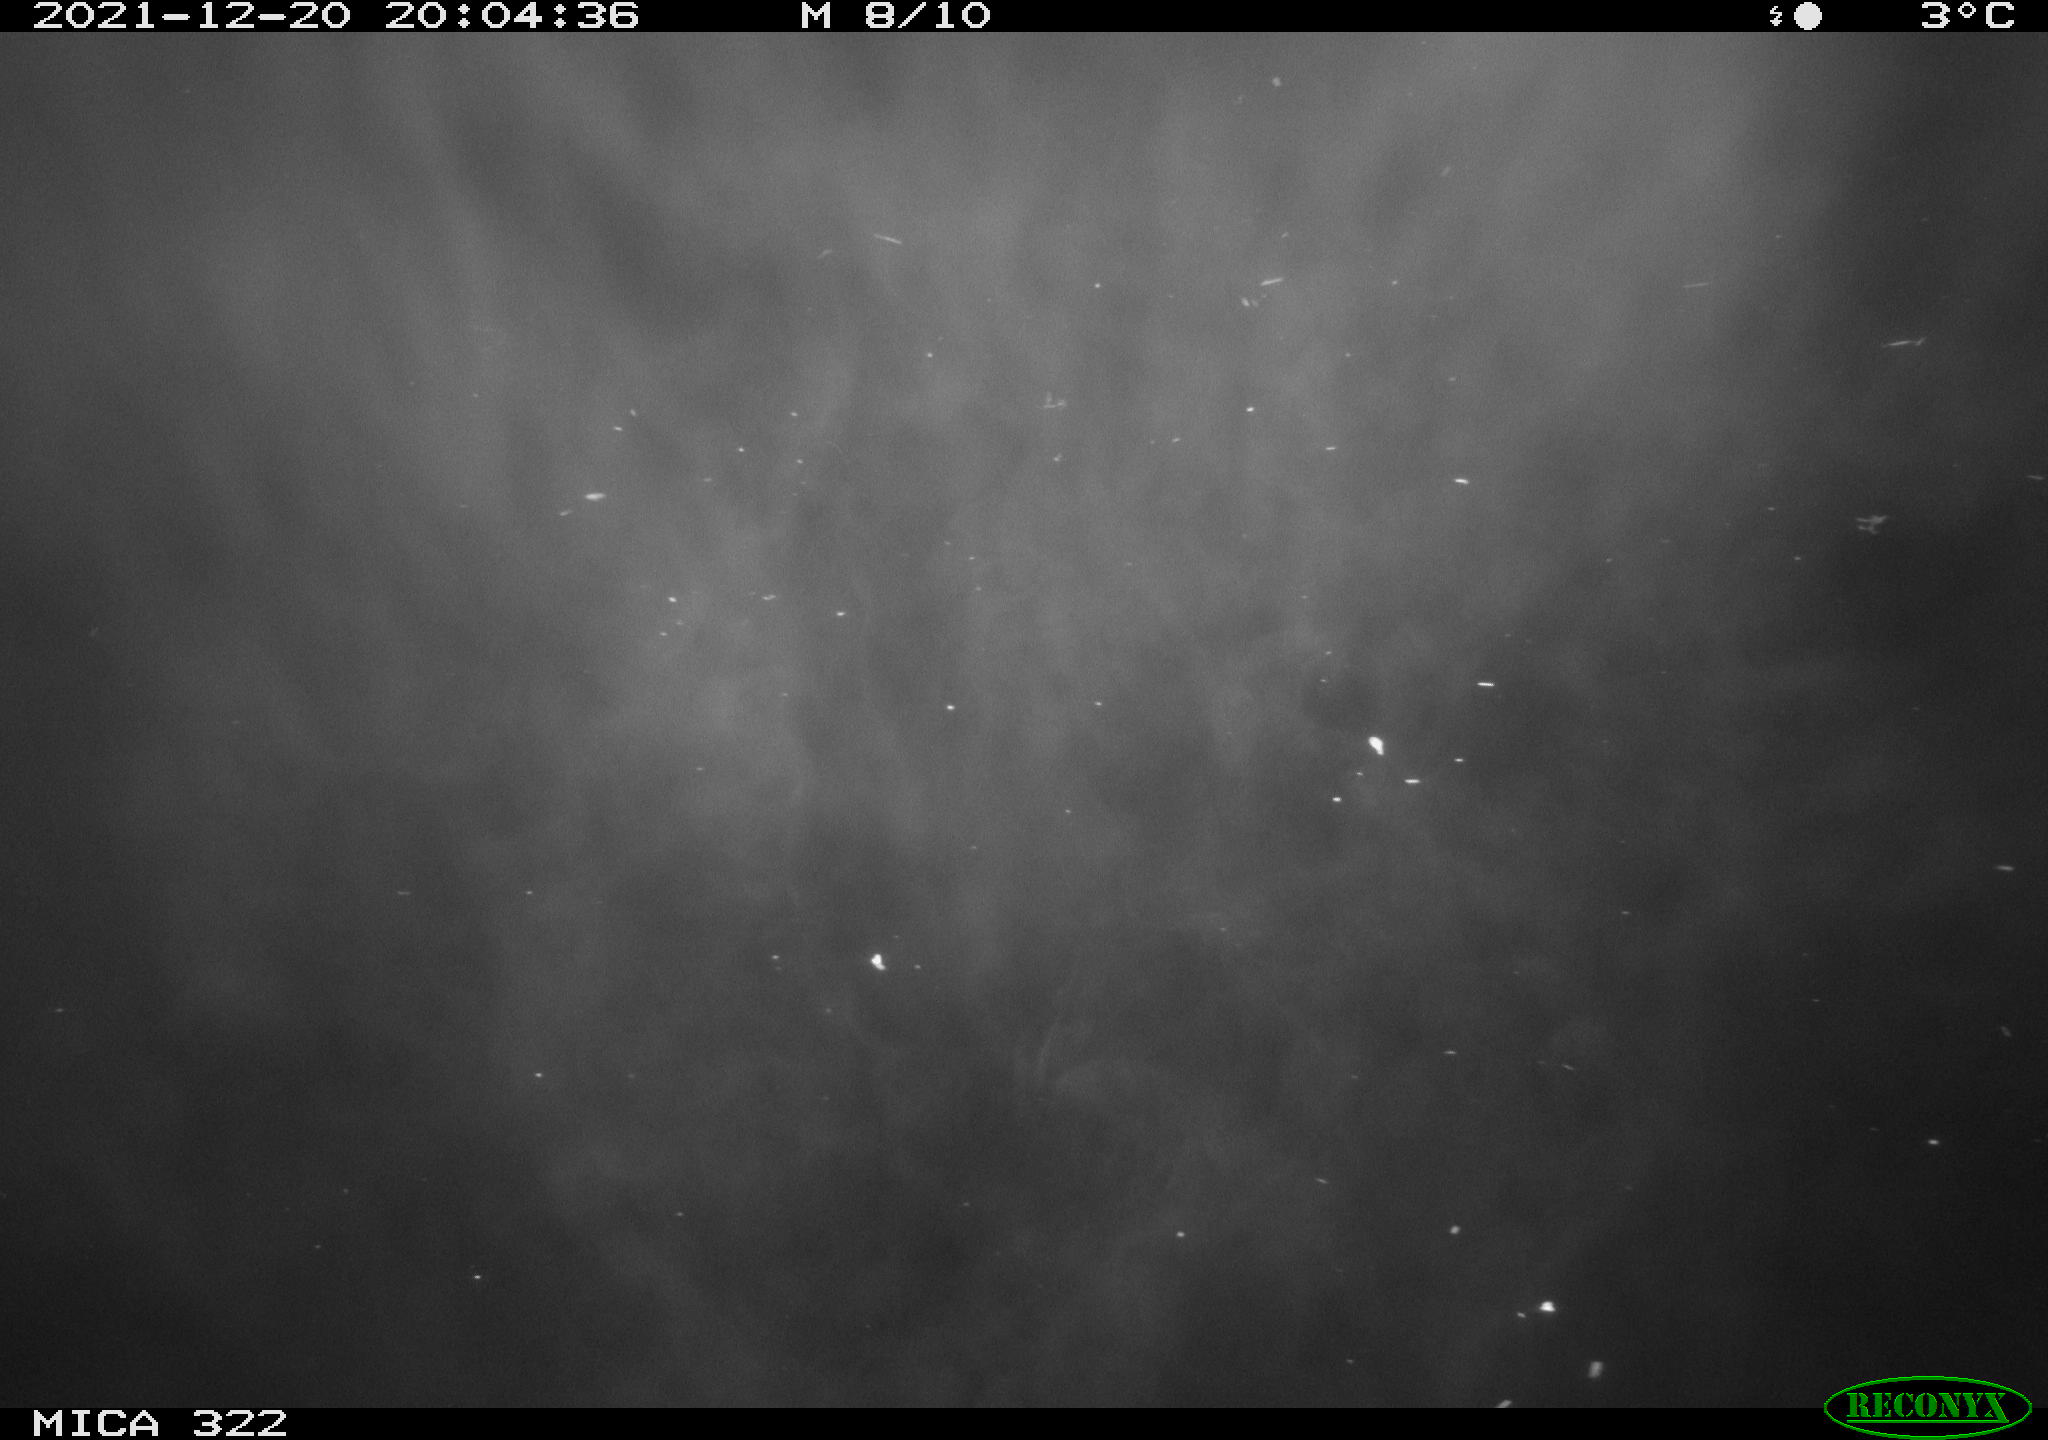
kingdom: Animalia
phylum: Chordata
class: Mammalia
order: Rodentia
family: Muridae
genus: Rattus
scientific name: Rattus norvegicus
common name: Brown rat
